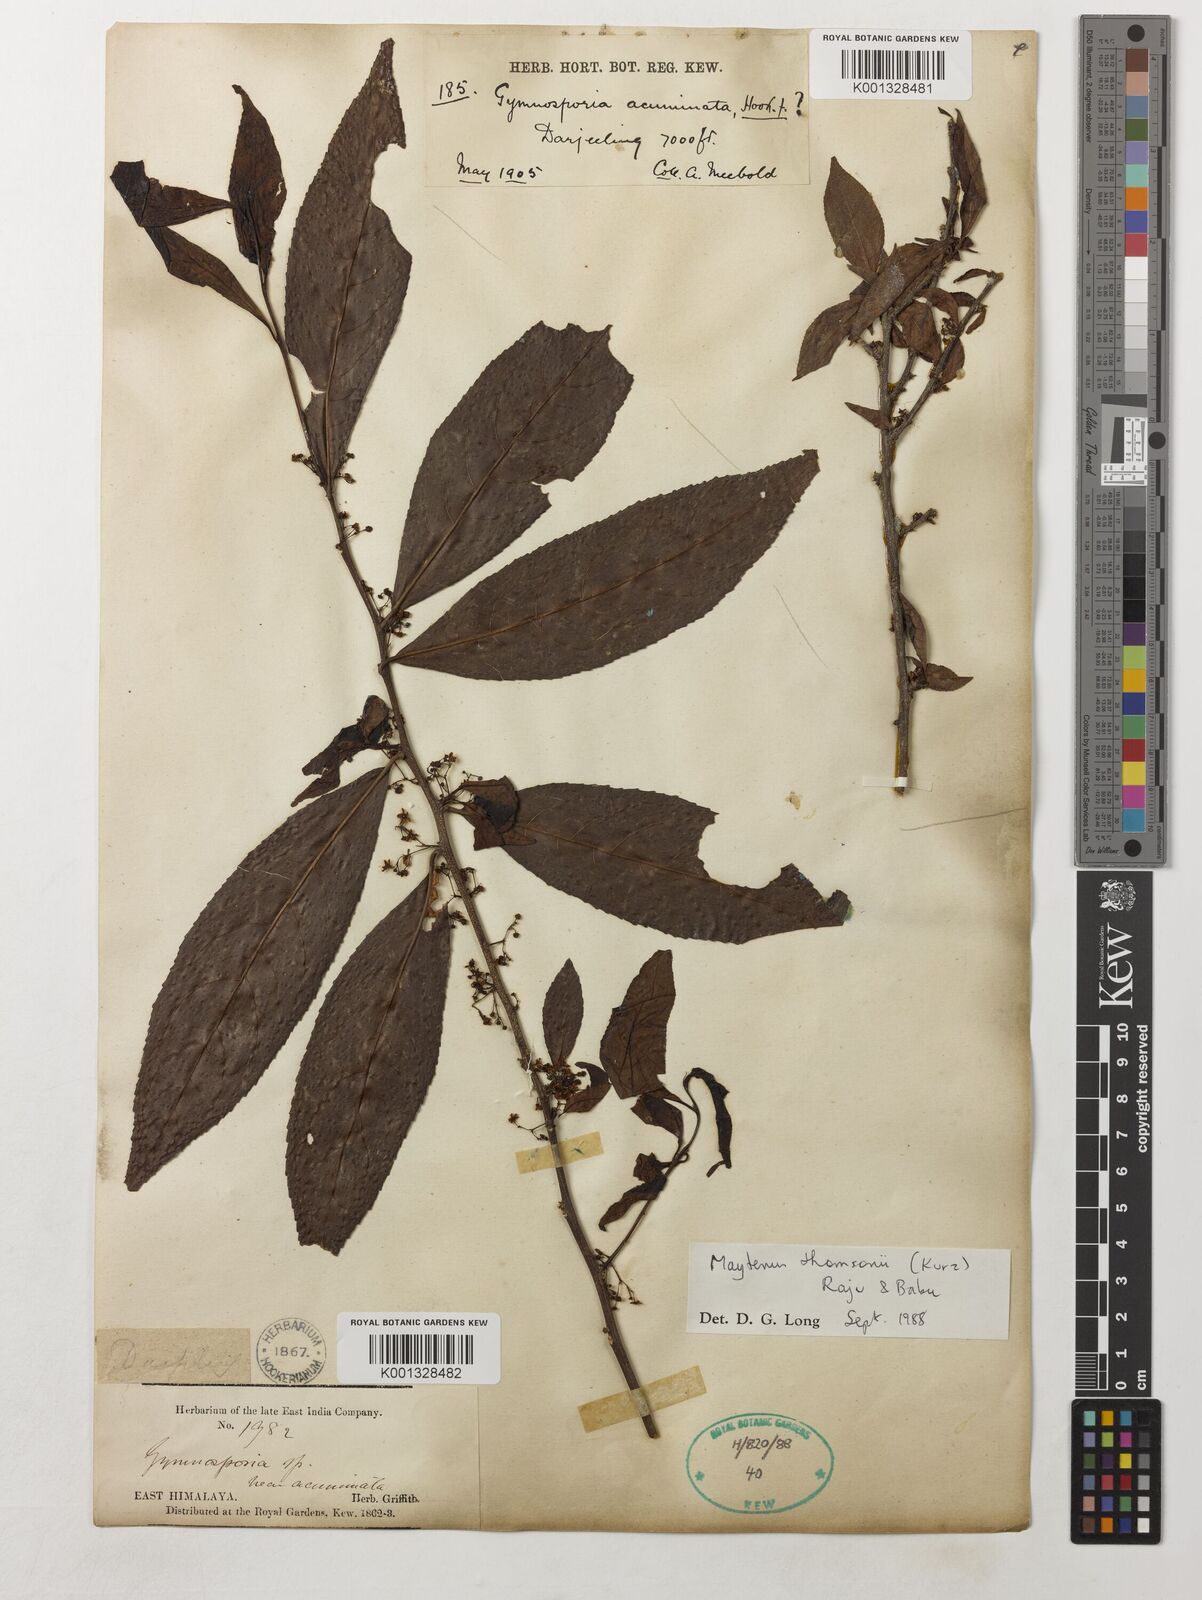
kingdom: Plantae
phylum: Tracheophyta
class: Magnoliopsida
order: Celastrales
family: Celastraceae
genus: Gymnosporia
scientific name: Gymnosporia thomsonii
